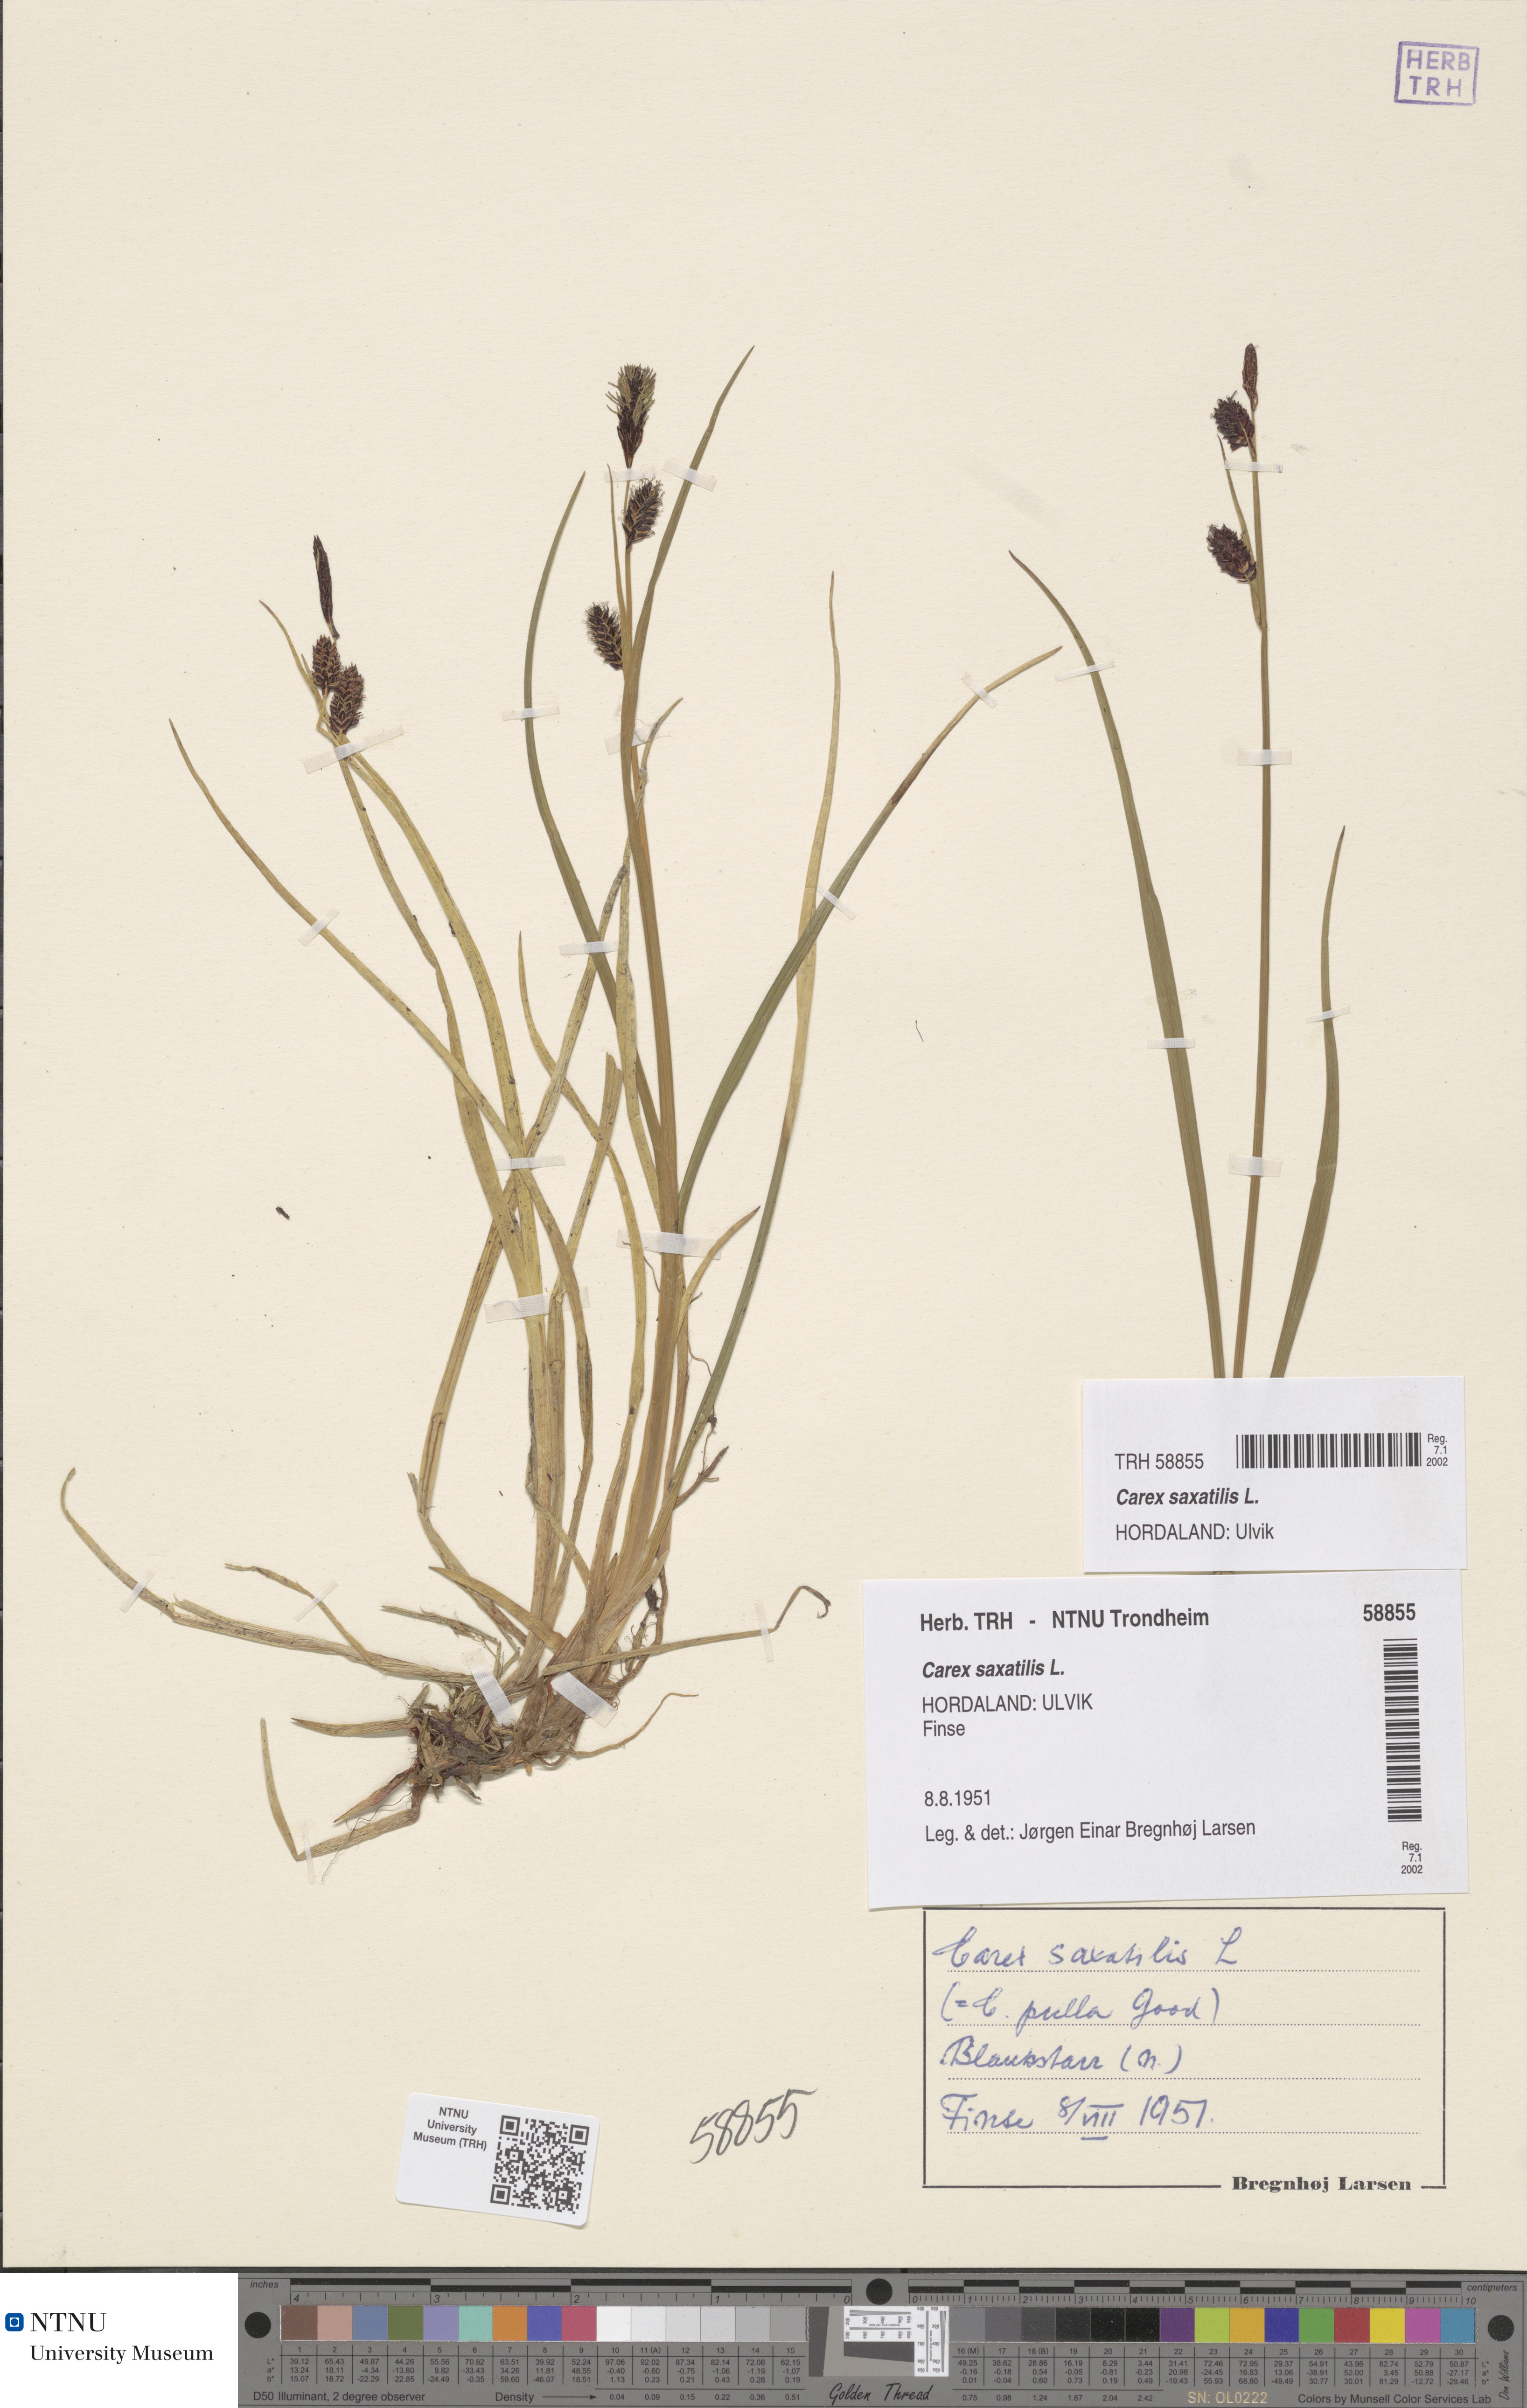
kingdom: Plantae
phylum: Tracheophyta
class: Liliopsida
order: Poales
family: Cyperaceae
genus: Carex
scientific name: Carex saxatilis
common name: Russet sedge
